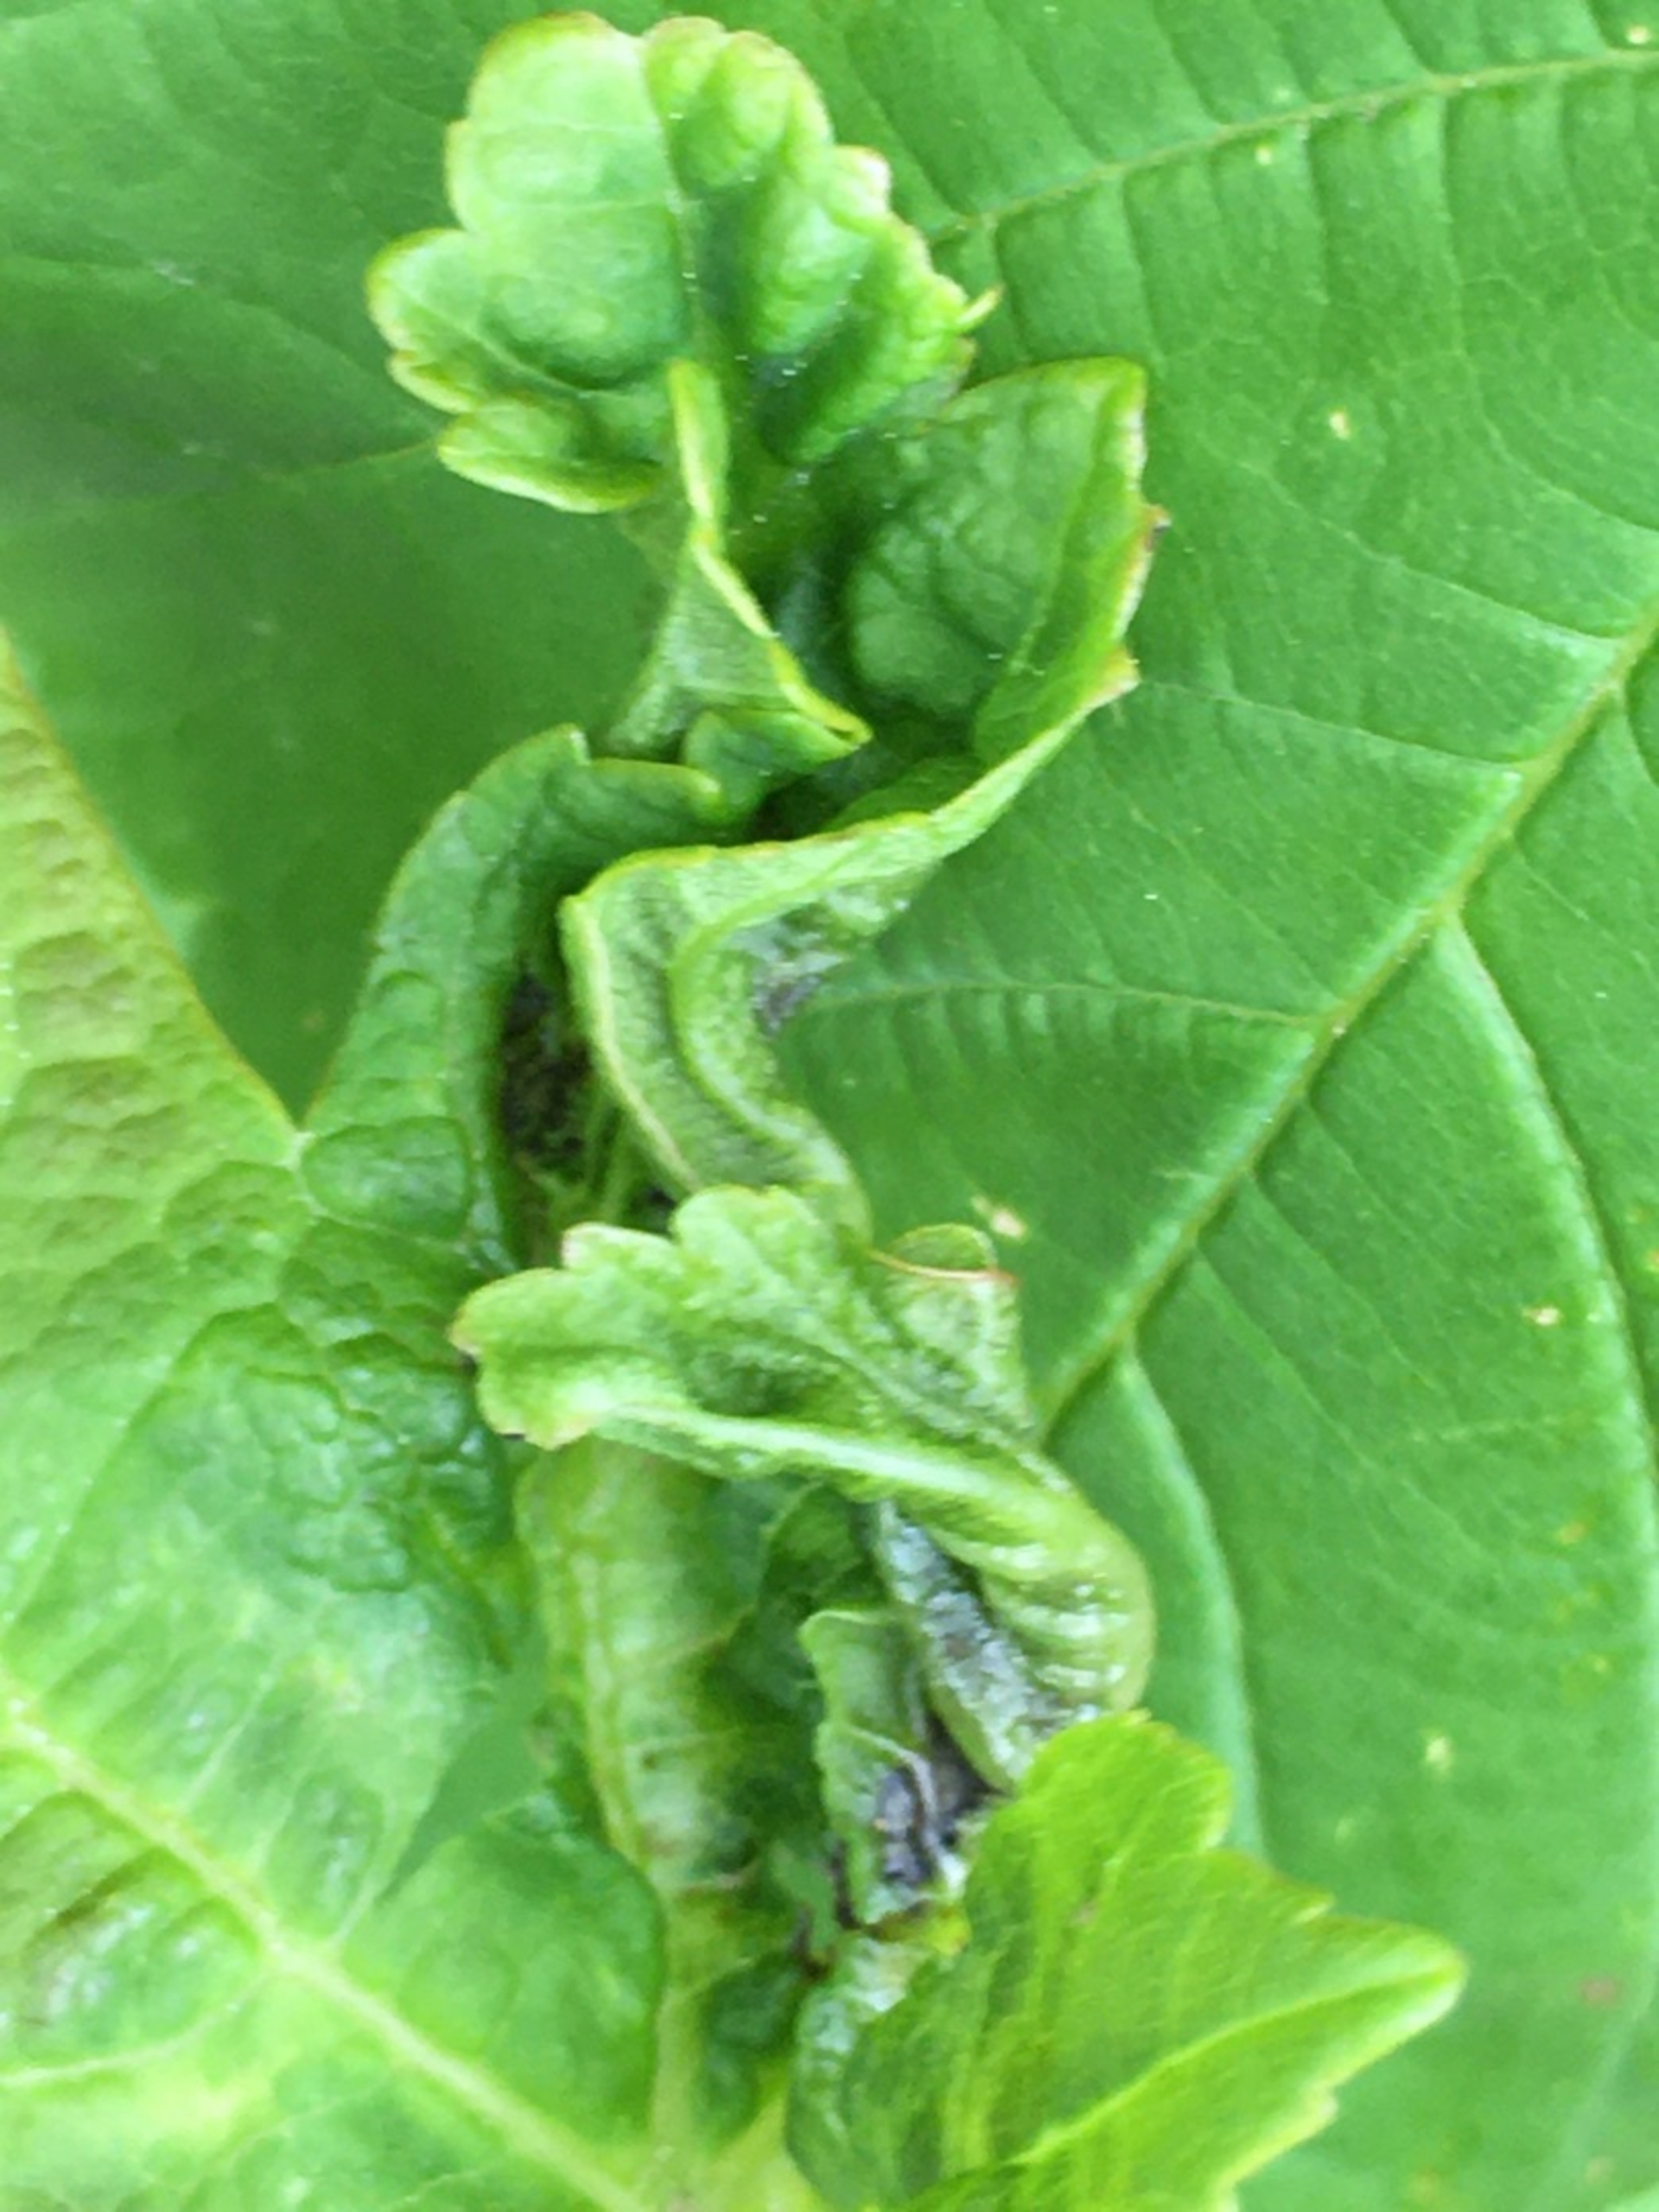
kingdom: Animalia
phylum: Arthropoda
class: Insecta
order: Diptera
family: Cecidomyiidae
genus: Dasineura
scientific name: Dasineura irregularis
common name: Ahornkrusegalmyg
